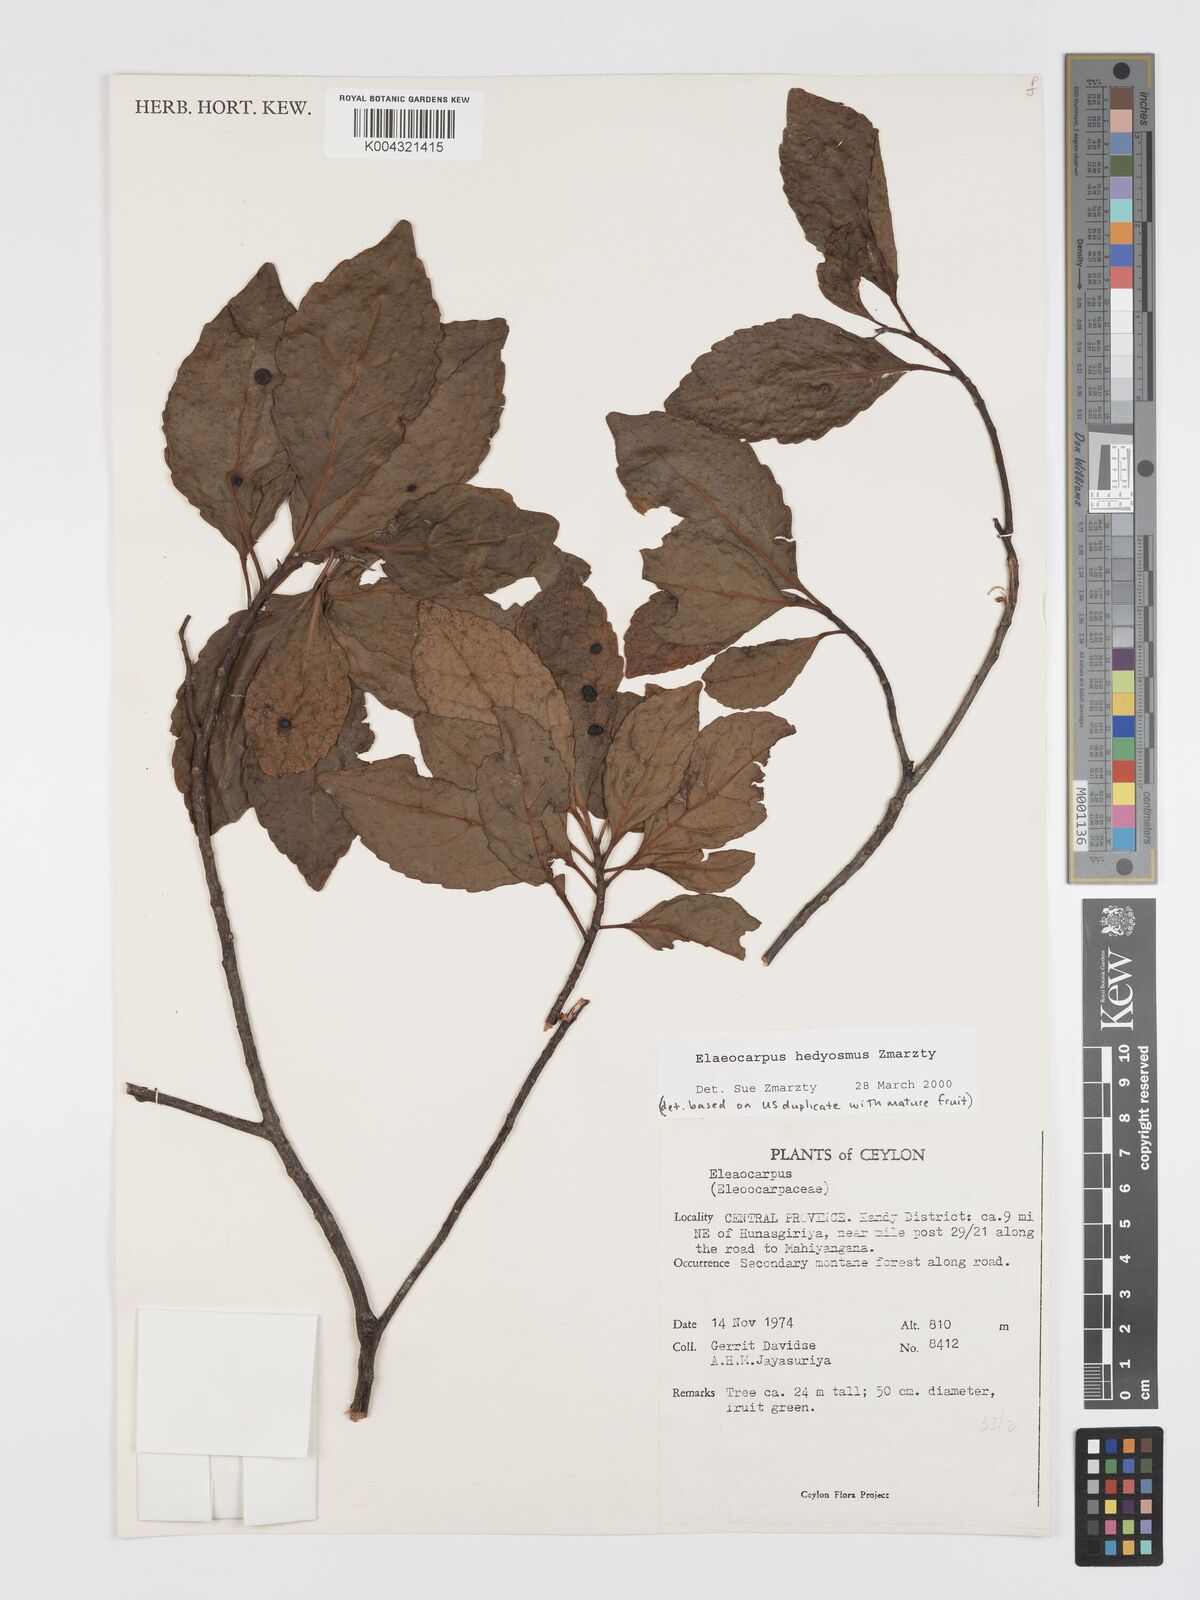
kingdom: Plantae
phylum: Tracheophyta
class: Magnoliopsida
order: Oxalidales
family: Elaeocarpaceae
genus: Elaeocarpus
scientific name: Elaeocarpus hedyosmus
